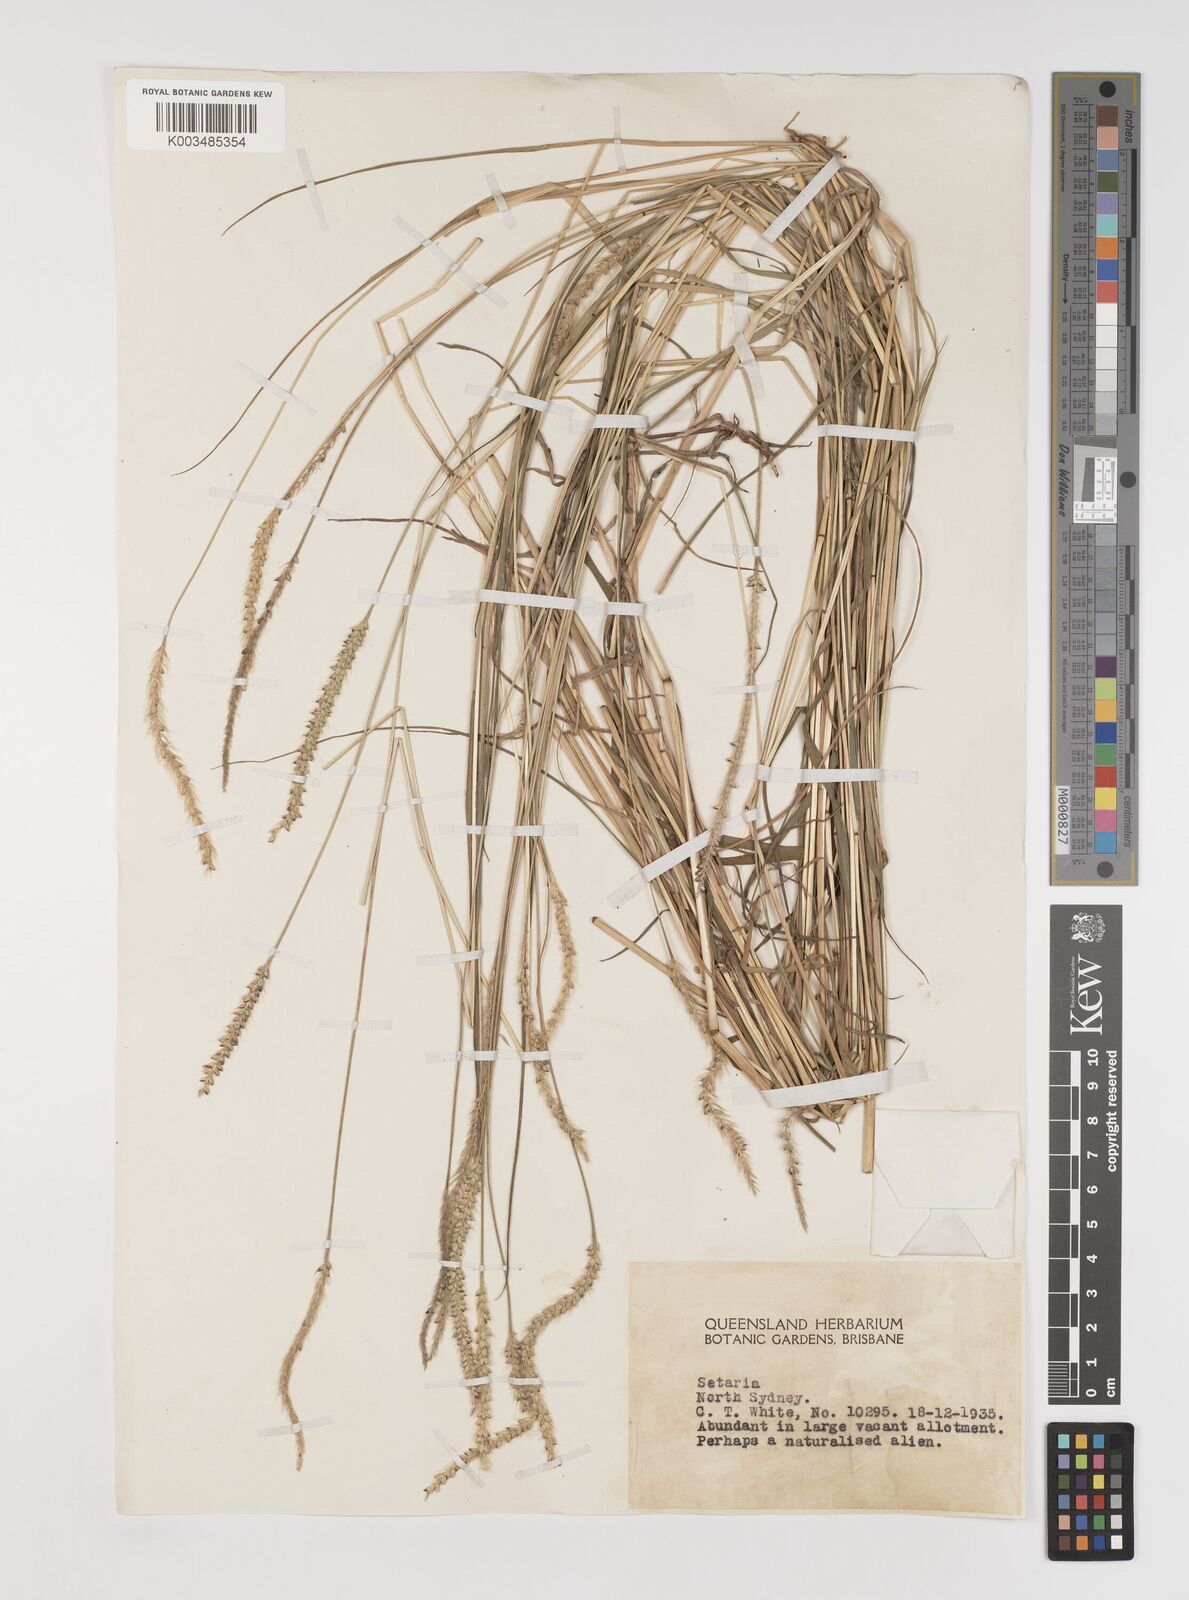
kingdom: Plantae
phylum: Tracheophyta
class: Liliopsida
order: Poales
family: Poaceae
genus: Setaria
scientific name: Setaria parviflora
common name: Knotroot bristle-grass
